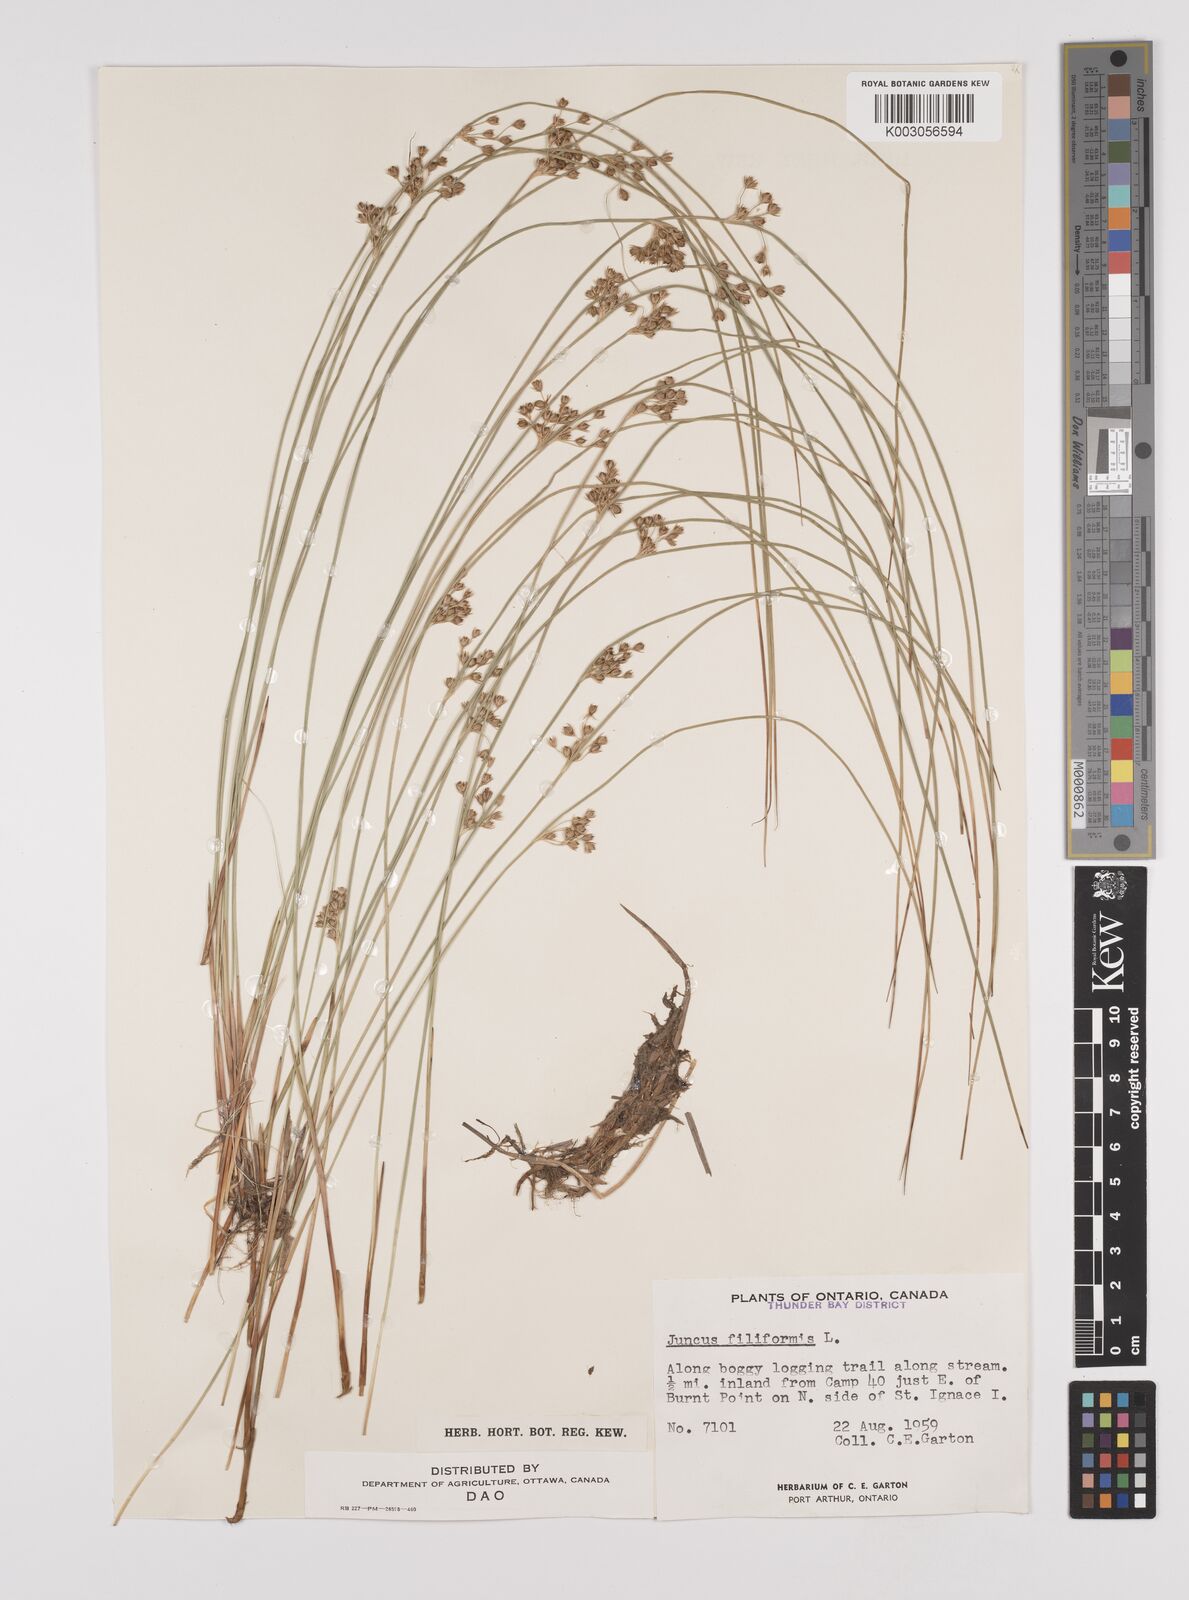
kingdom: Plantae
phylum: Tracheophyta
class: Liliopsida
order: Poales
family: Juncaceae
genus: Juncus
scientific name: Juncus filiformis
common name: Thread rush
